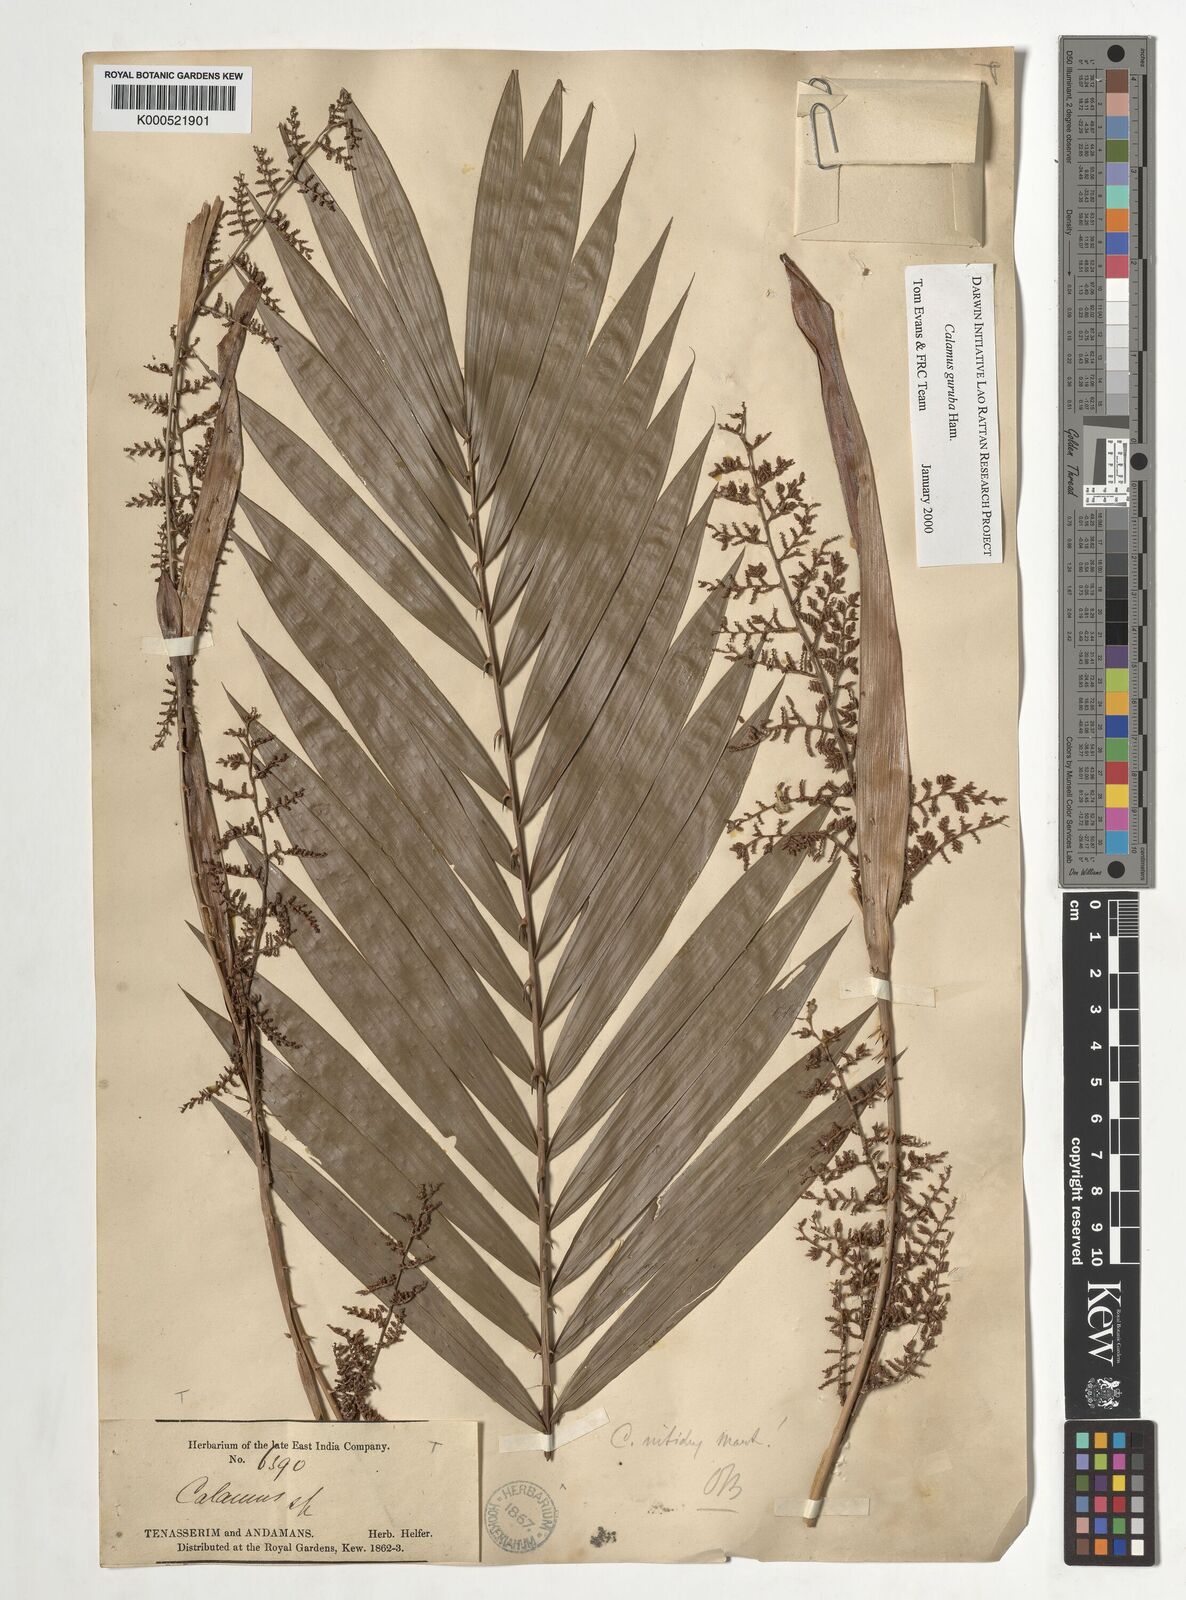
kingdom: Plantae
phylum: Tracheophyta
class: Liliopsida
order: Arecales
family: Arecaceae
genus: Calamus
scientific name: Calamus
